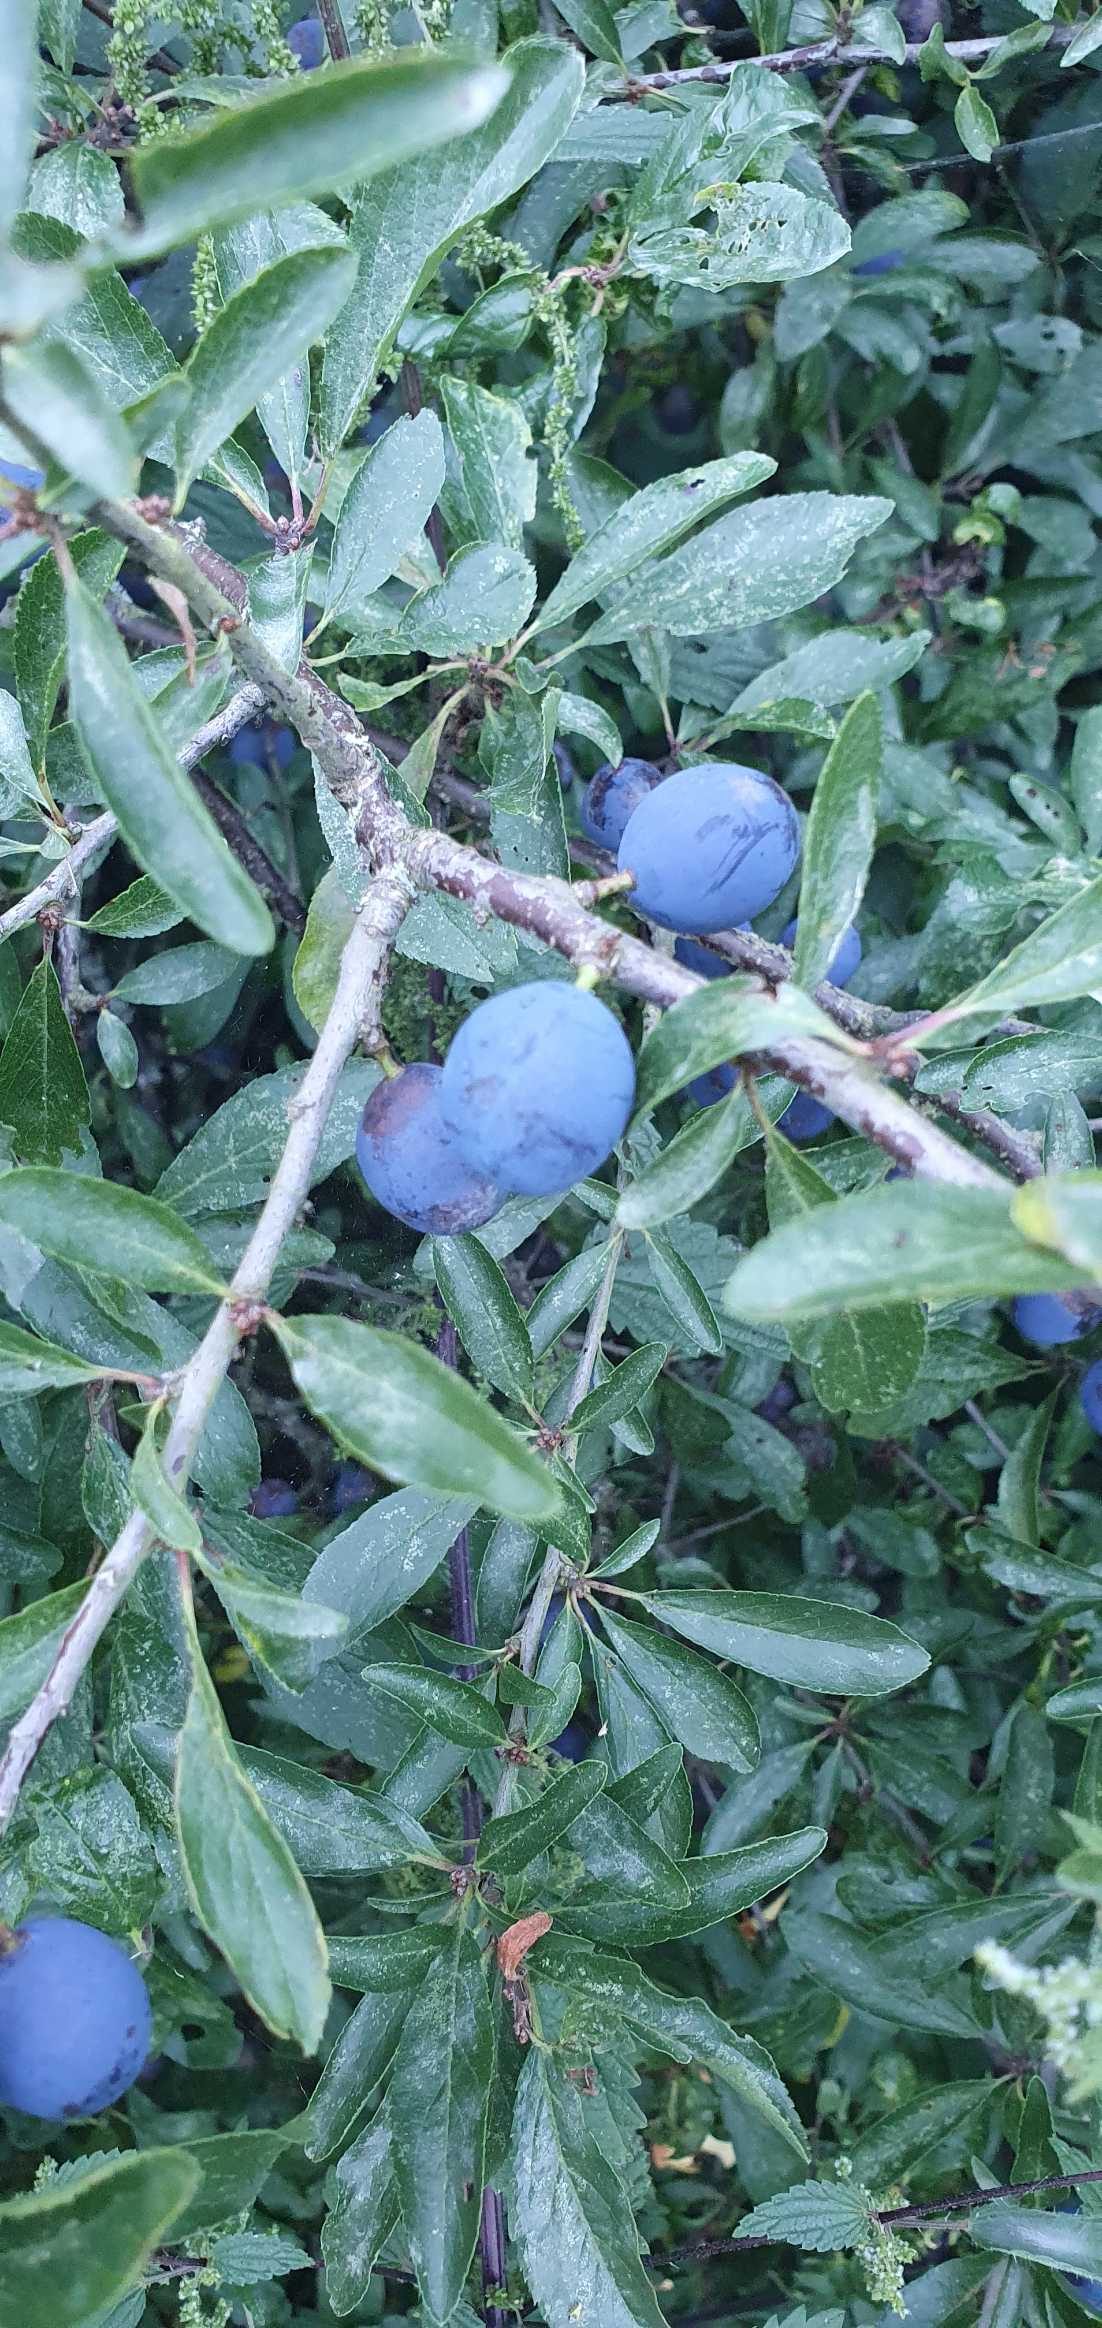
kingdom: Plantae
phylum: Tracheophyta
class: Magnoliopsida
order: Rosales
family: Rosaceae
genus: Prunus
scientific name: Prunus spinosa
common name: Slåen
